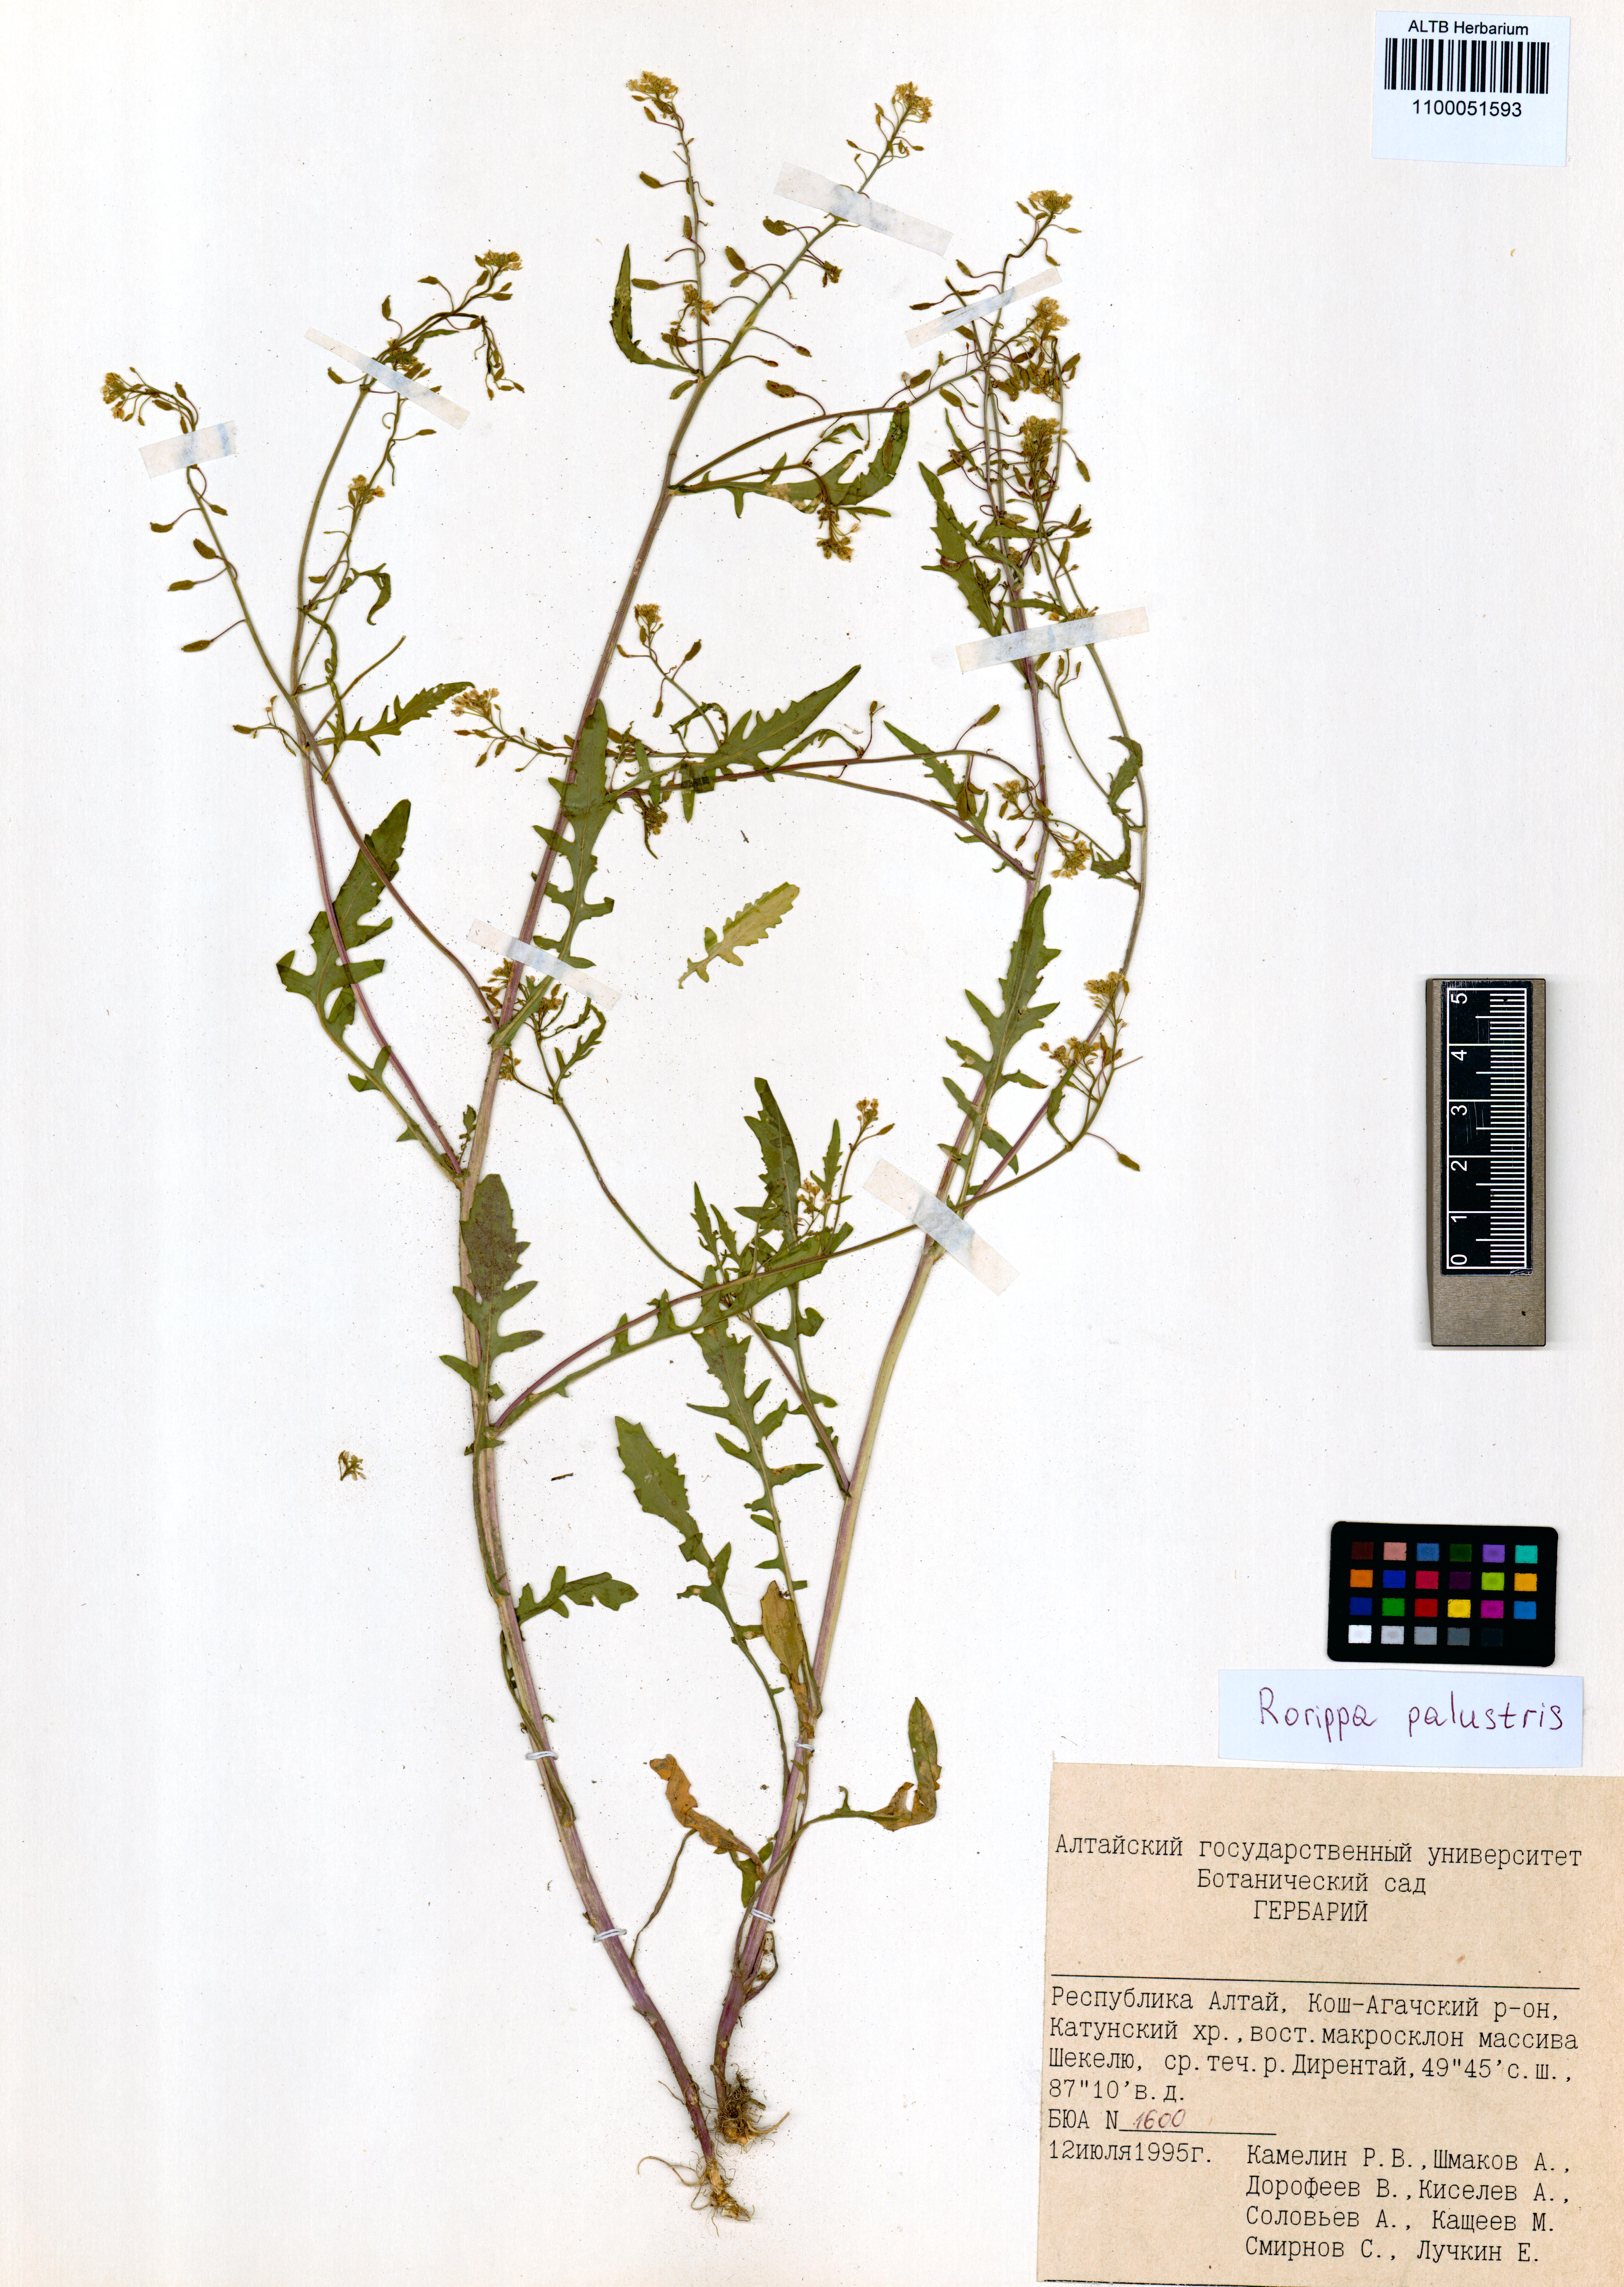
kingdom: Plantae
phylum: Tracheophyta
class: Magnoliopsida
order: Brassicales
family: Brassicaceae
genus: Rorippa
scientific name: Rorippa palustris
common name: Marsh yellow-cress
